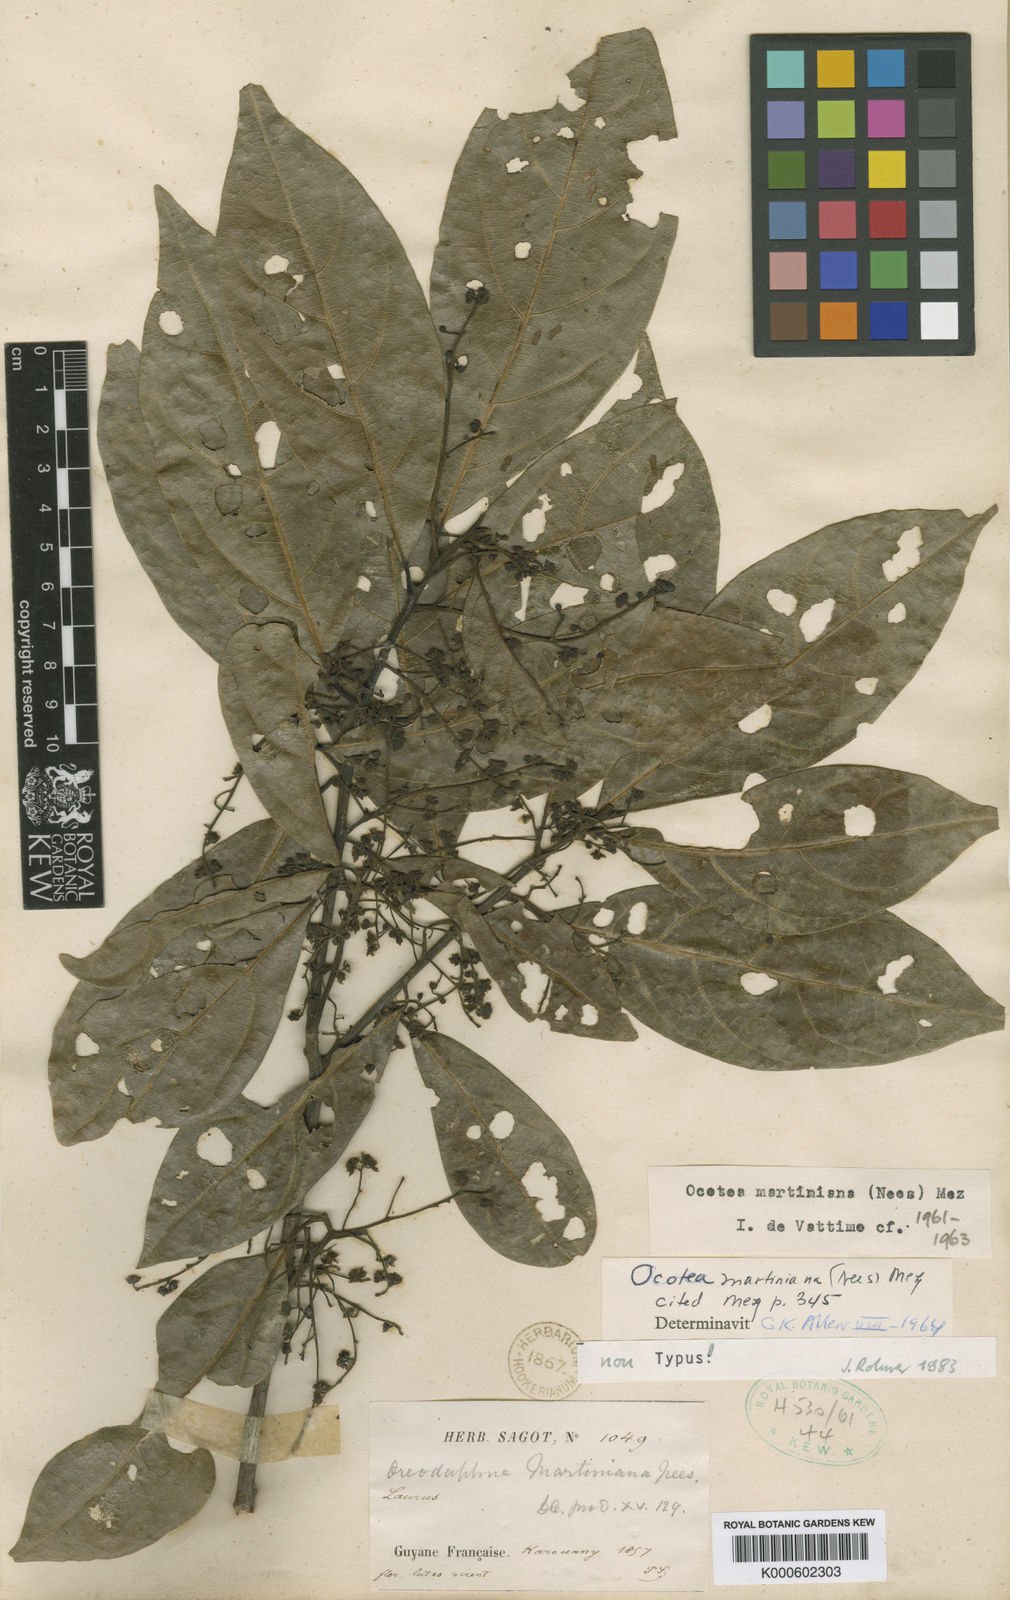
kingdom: Plantae
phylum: Tracheophyta
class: Magnoliopsida
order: Laurales
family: Lauraceae
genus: Ocotea
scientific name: Ocotea puberula
